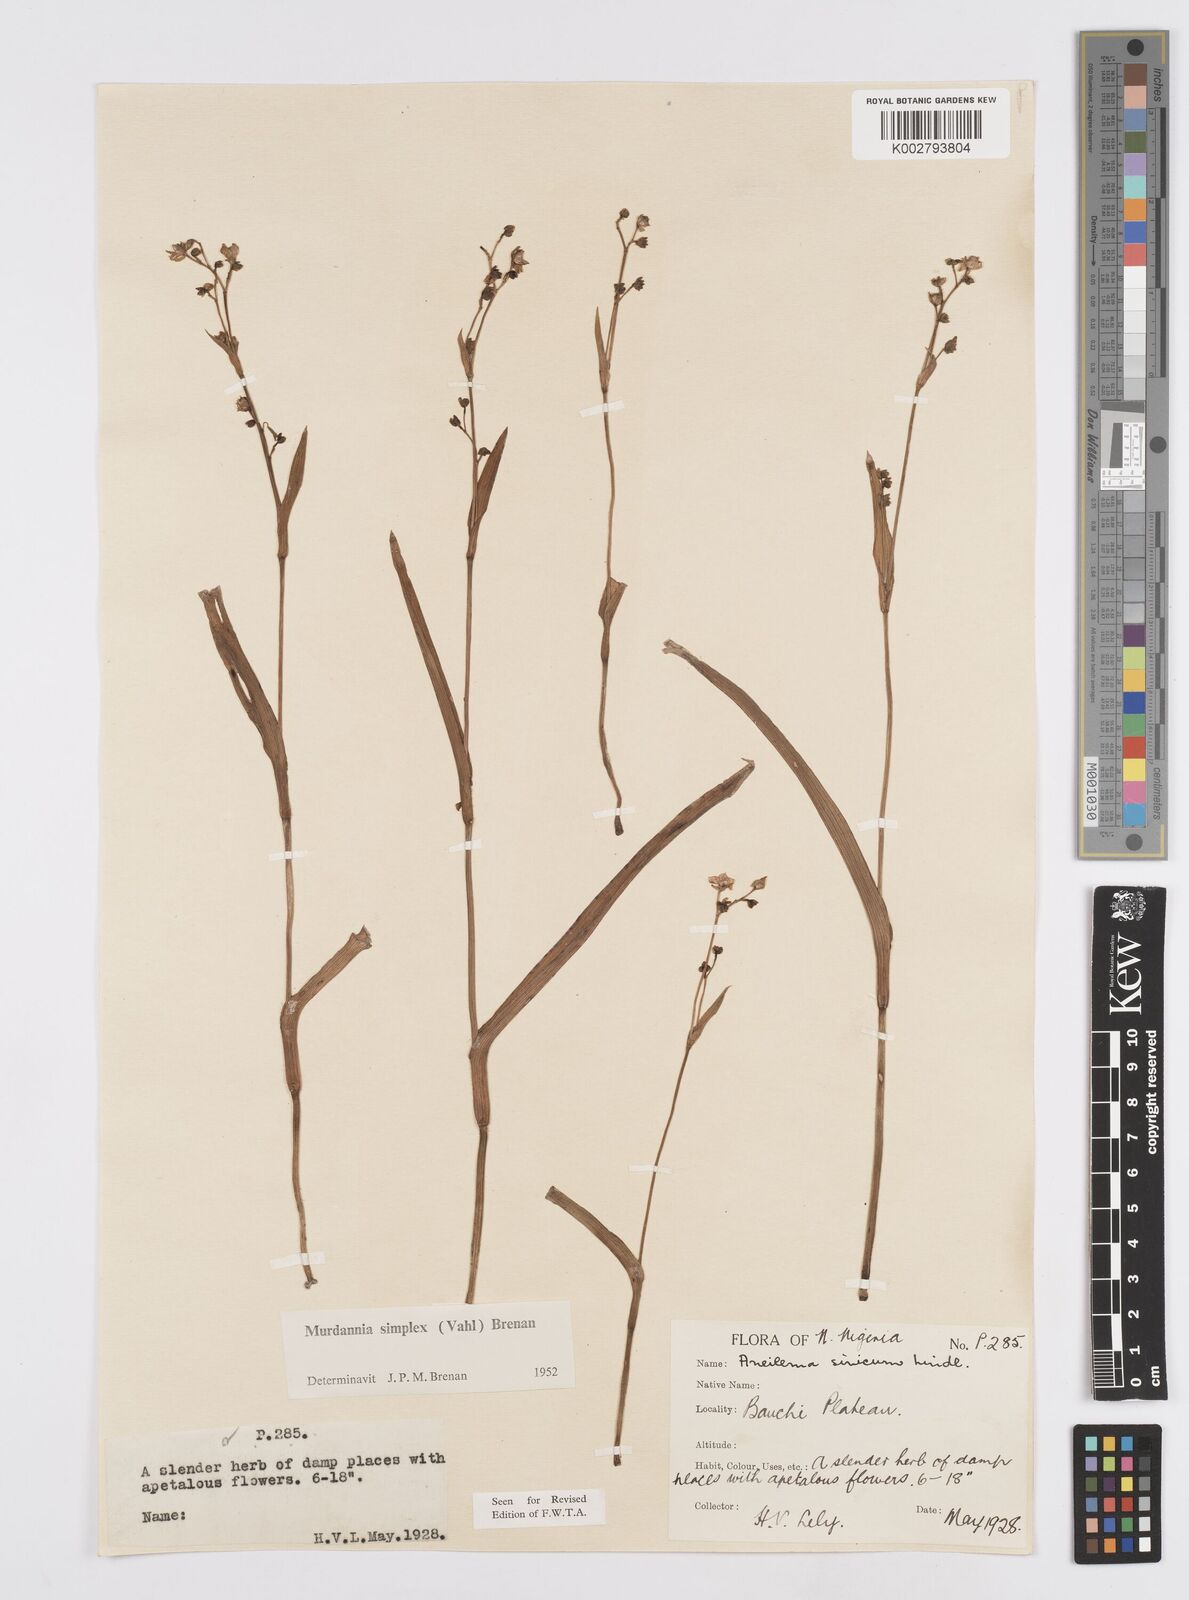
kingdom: Plantae
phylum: Tracheophyta
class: Liliopsida
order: Commelinales
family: Commelinaceae
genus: Murdannia
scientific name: Murdannia simplex
